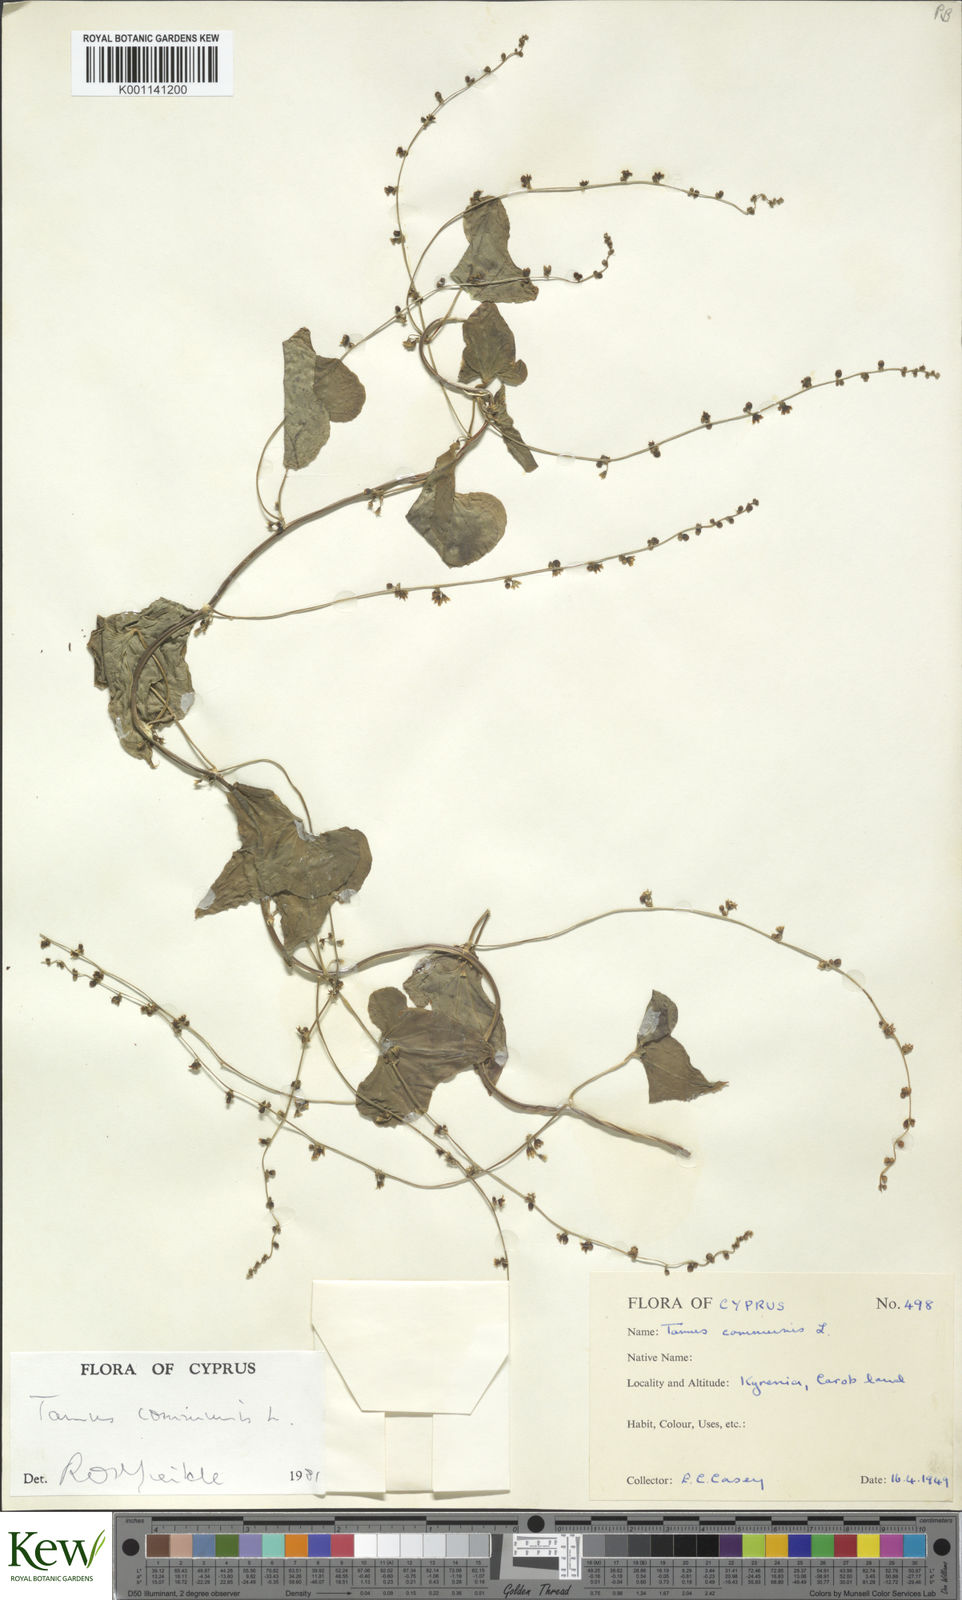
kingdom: Plantae
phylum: Tracheophyta
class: Liliopsida
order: Dioscoreales
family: Dioscoreaceae
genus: Dioscorea
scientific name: Dioscorea communis
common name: Black-bindweed
